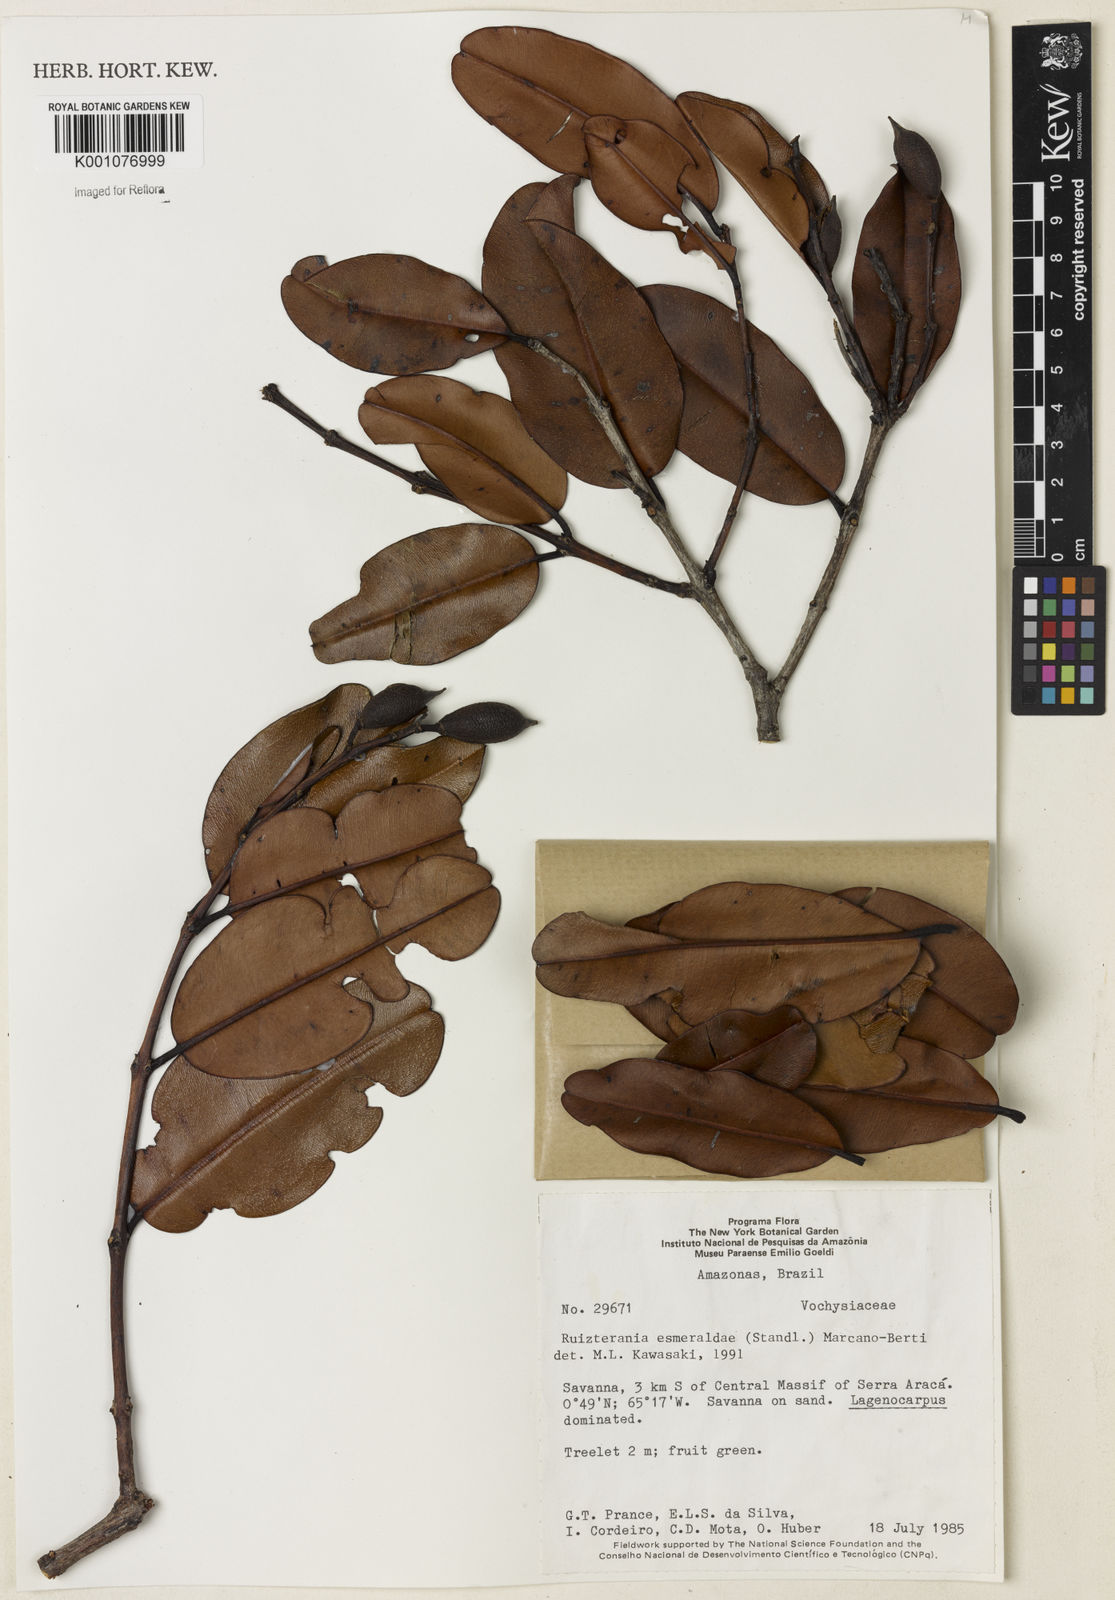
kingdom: Plantae
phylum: Tracheophyta
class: Magnoliopsida
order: Myrtales
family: Vochysiaceae
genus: Ruizterania
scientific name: Ruizterania esmeraldae
